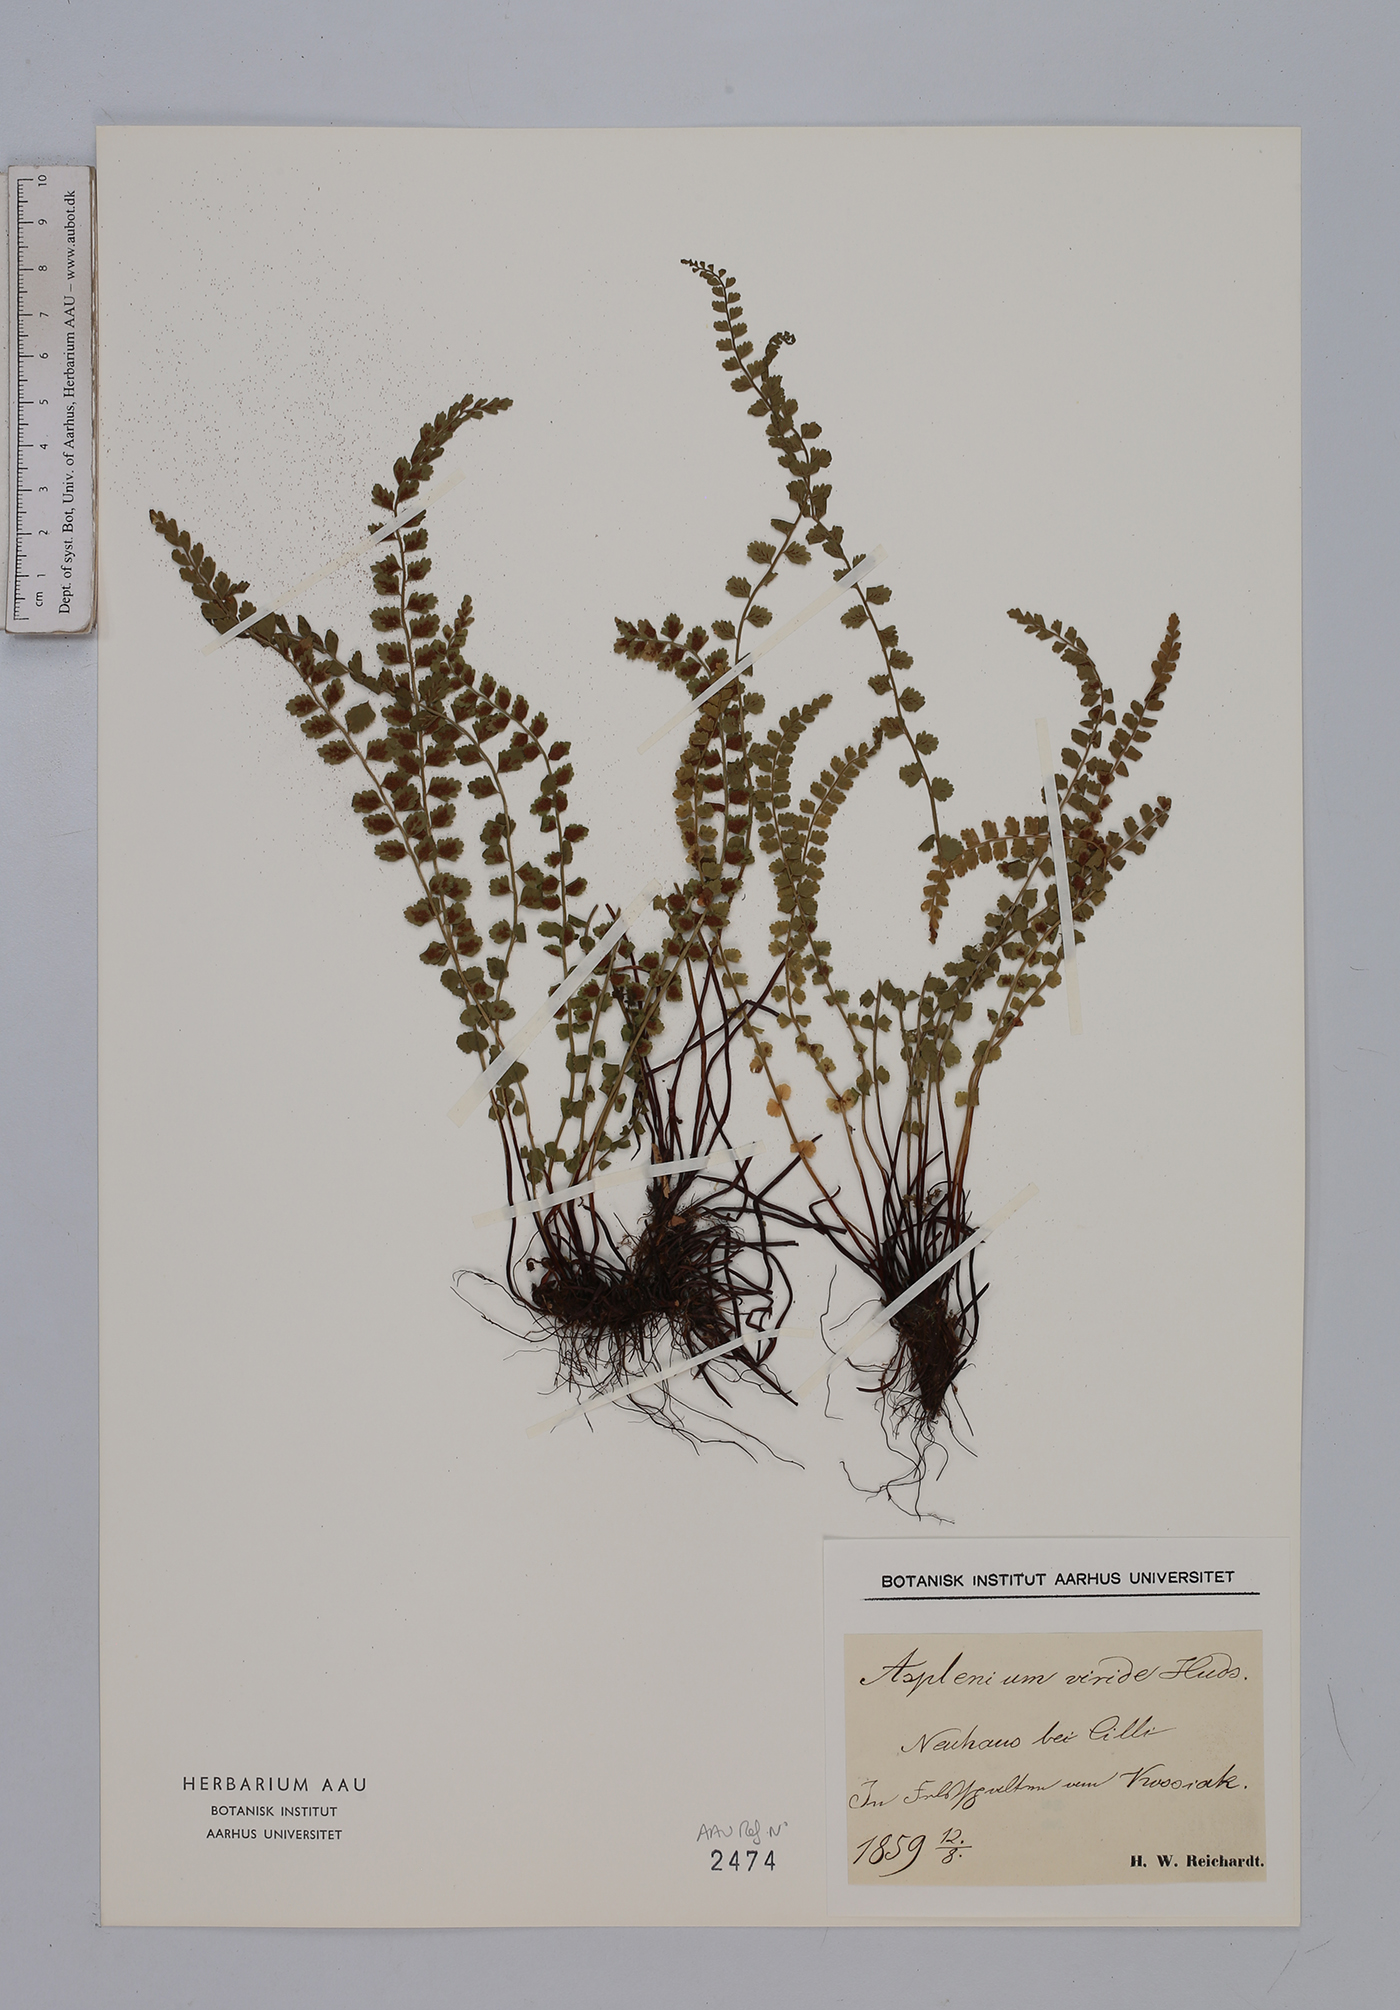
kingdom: Plantae
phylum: Tracheophyta
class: Polypodiopsida
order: Polypodiales
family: Aspleniaceae
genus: Asplenium
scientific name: Asplenium viride
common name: Green spleenwort
